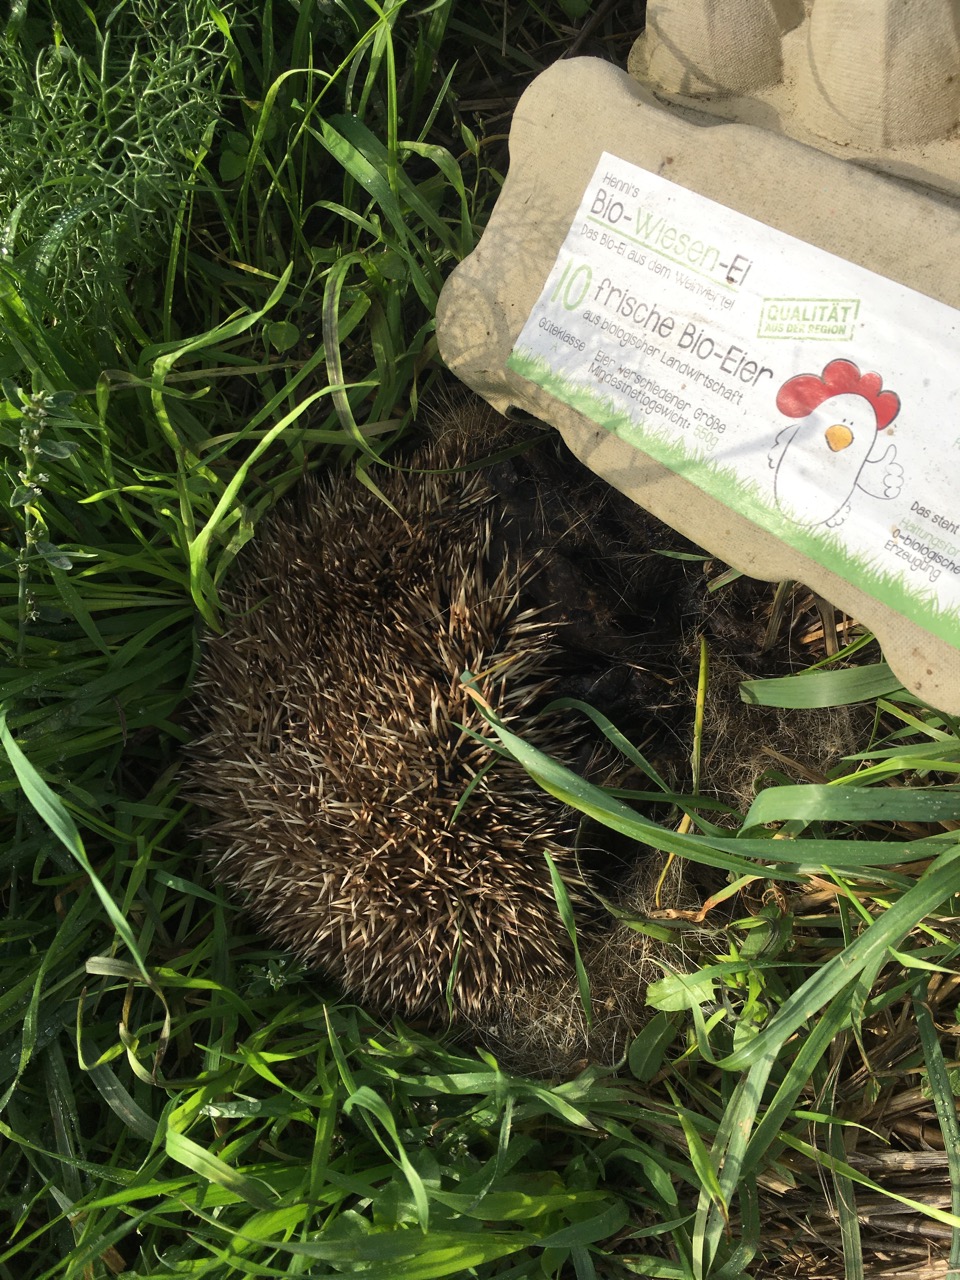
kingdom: Animalia
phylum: Chordata
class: Mammalia
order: Erinaceomorpha
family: Erinaceidae
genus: Erinaceus
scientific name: Erinaceus
